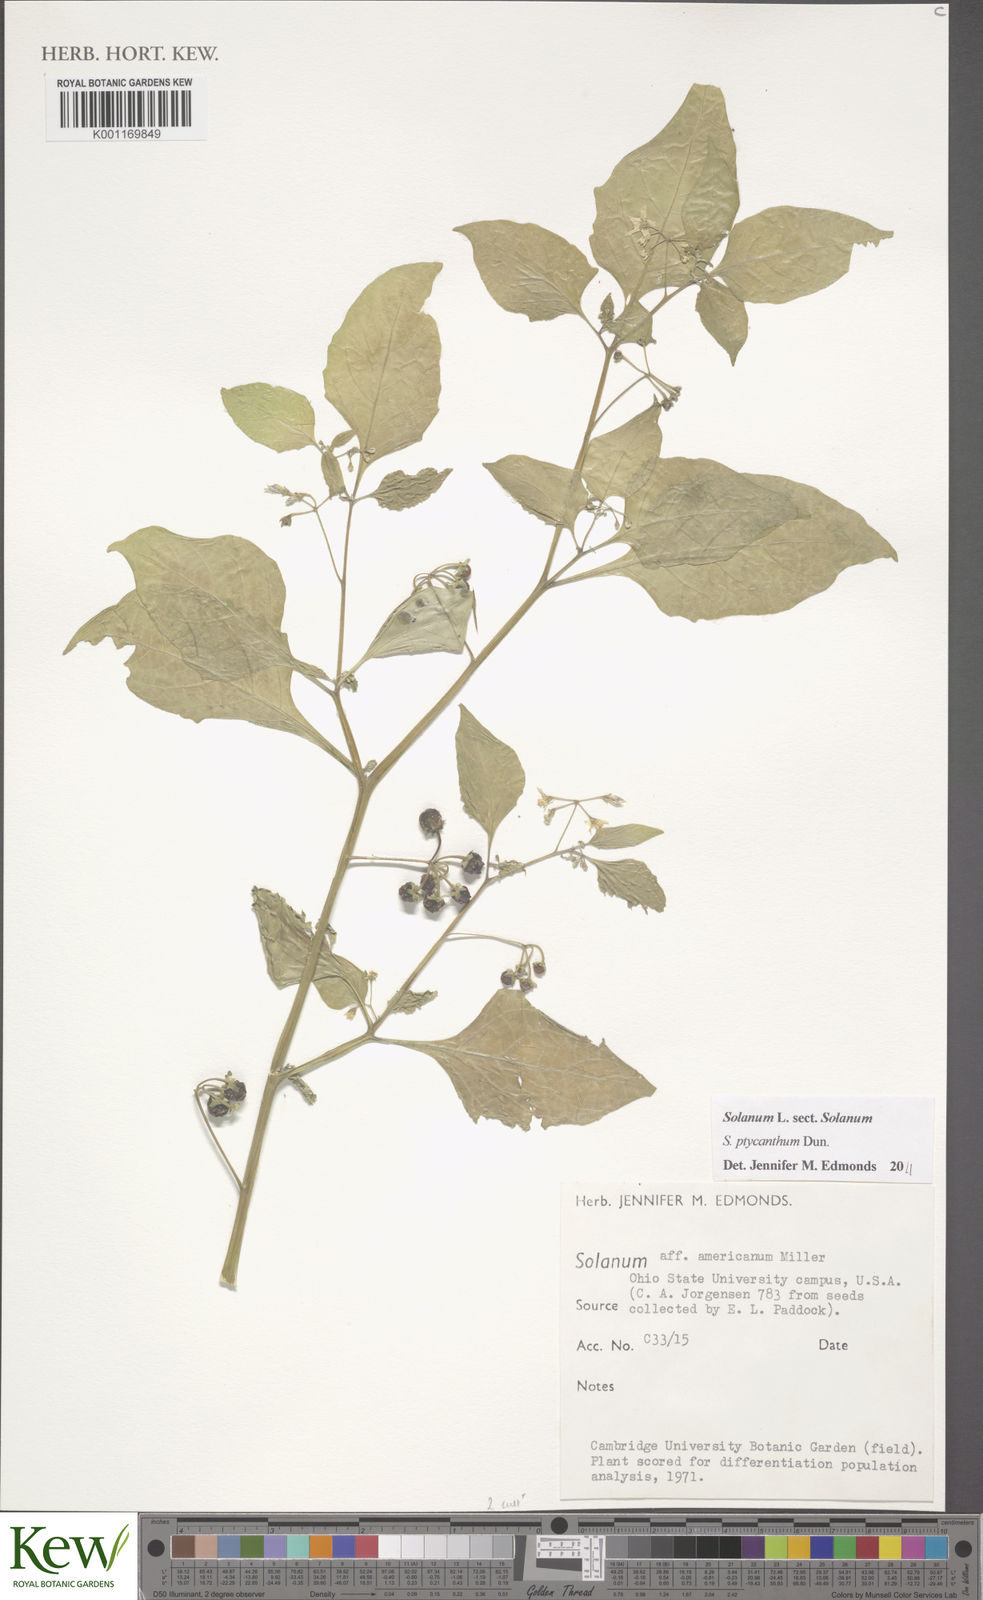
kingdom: Plantae
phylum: Tracheophyta
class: Magnoliopsida
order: Solanales
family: Solanaceae
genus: Solanum
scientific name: Solanum americanum
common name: American black nightshade
